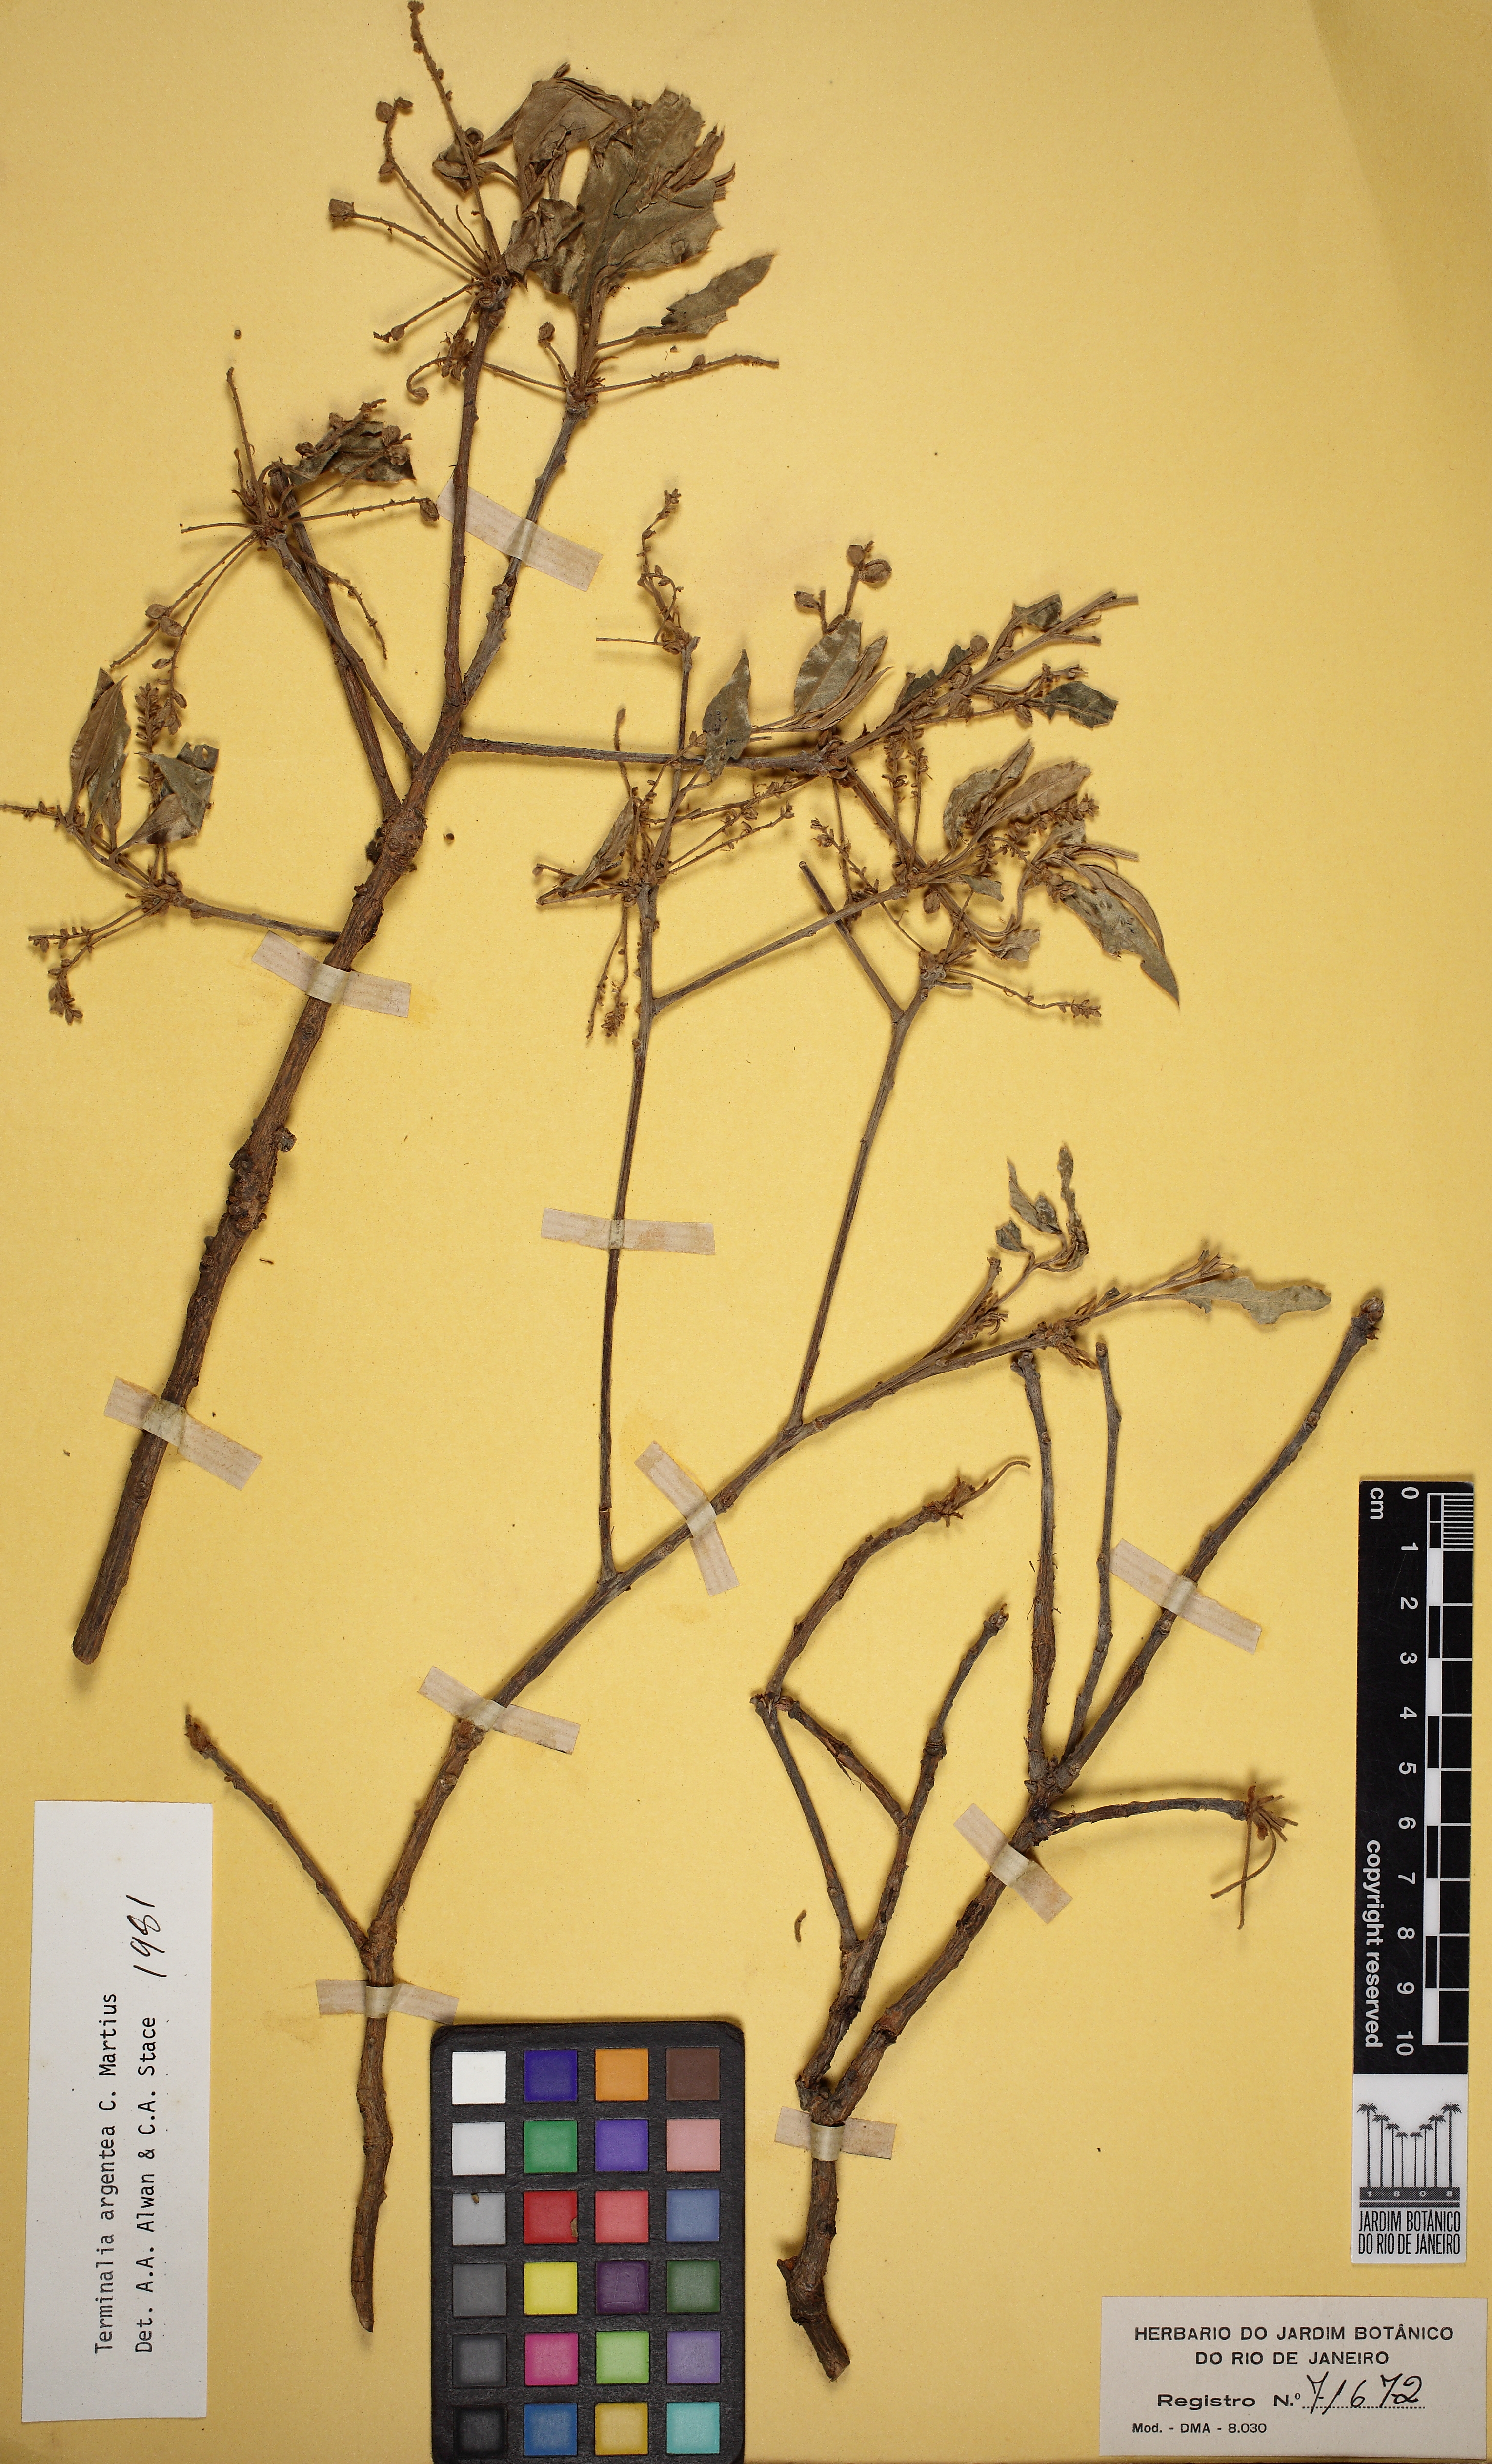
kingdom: Plantae
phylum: Tracheophyta
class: Magnoliopsida
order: Myrtales
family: Combretaceae
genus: Terminalia
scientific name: Terminalia argentea
